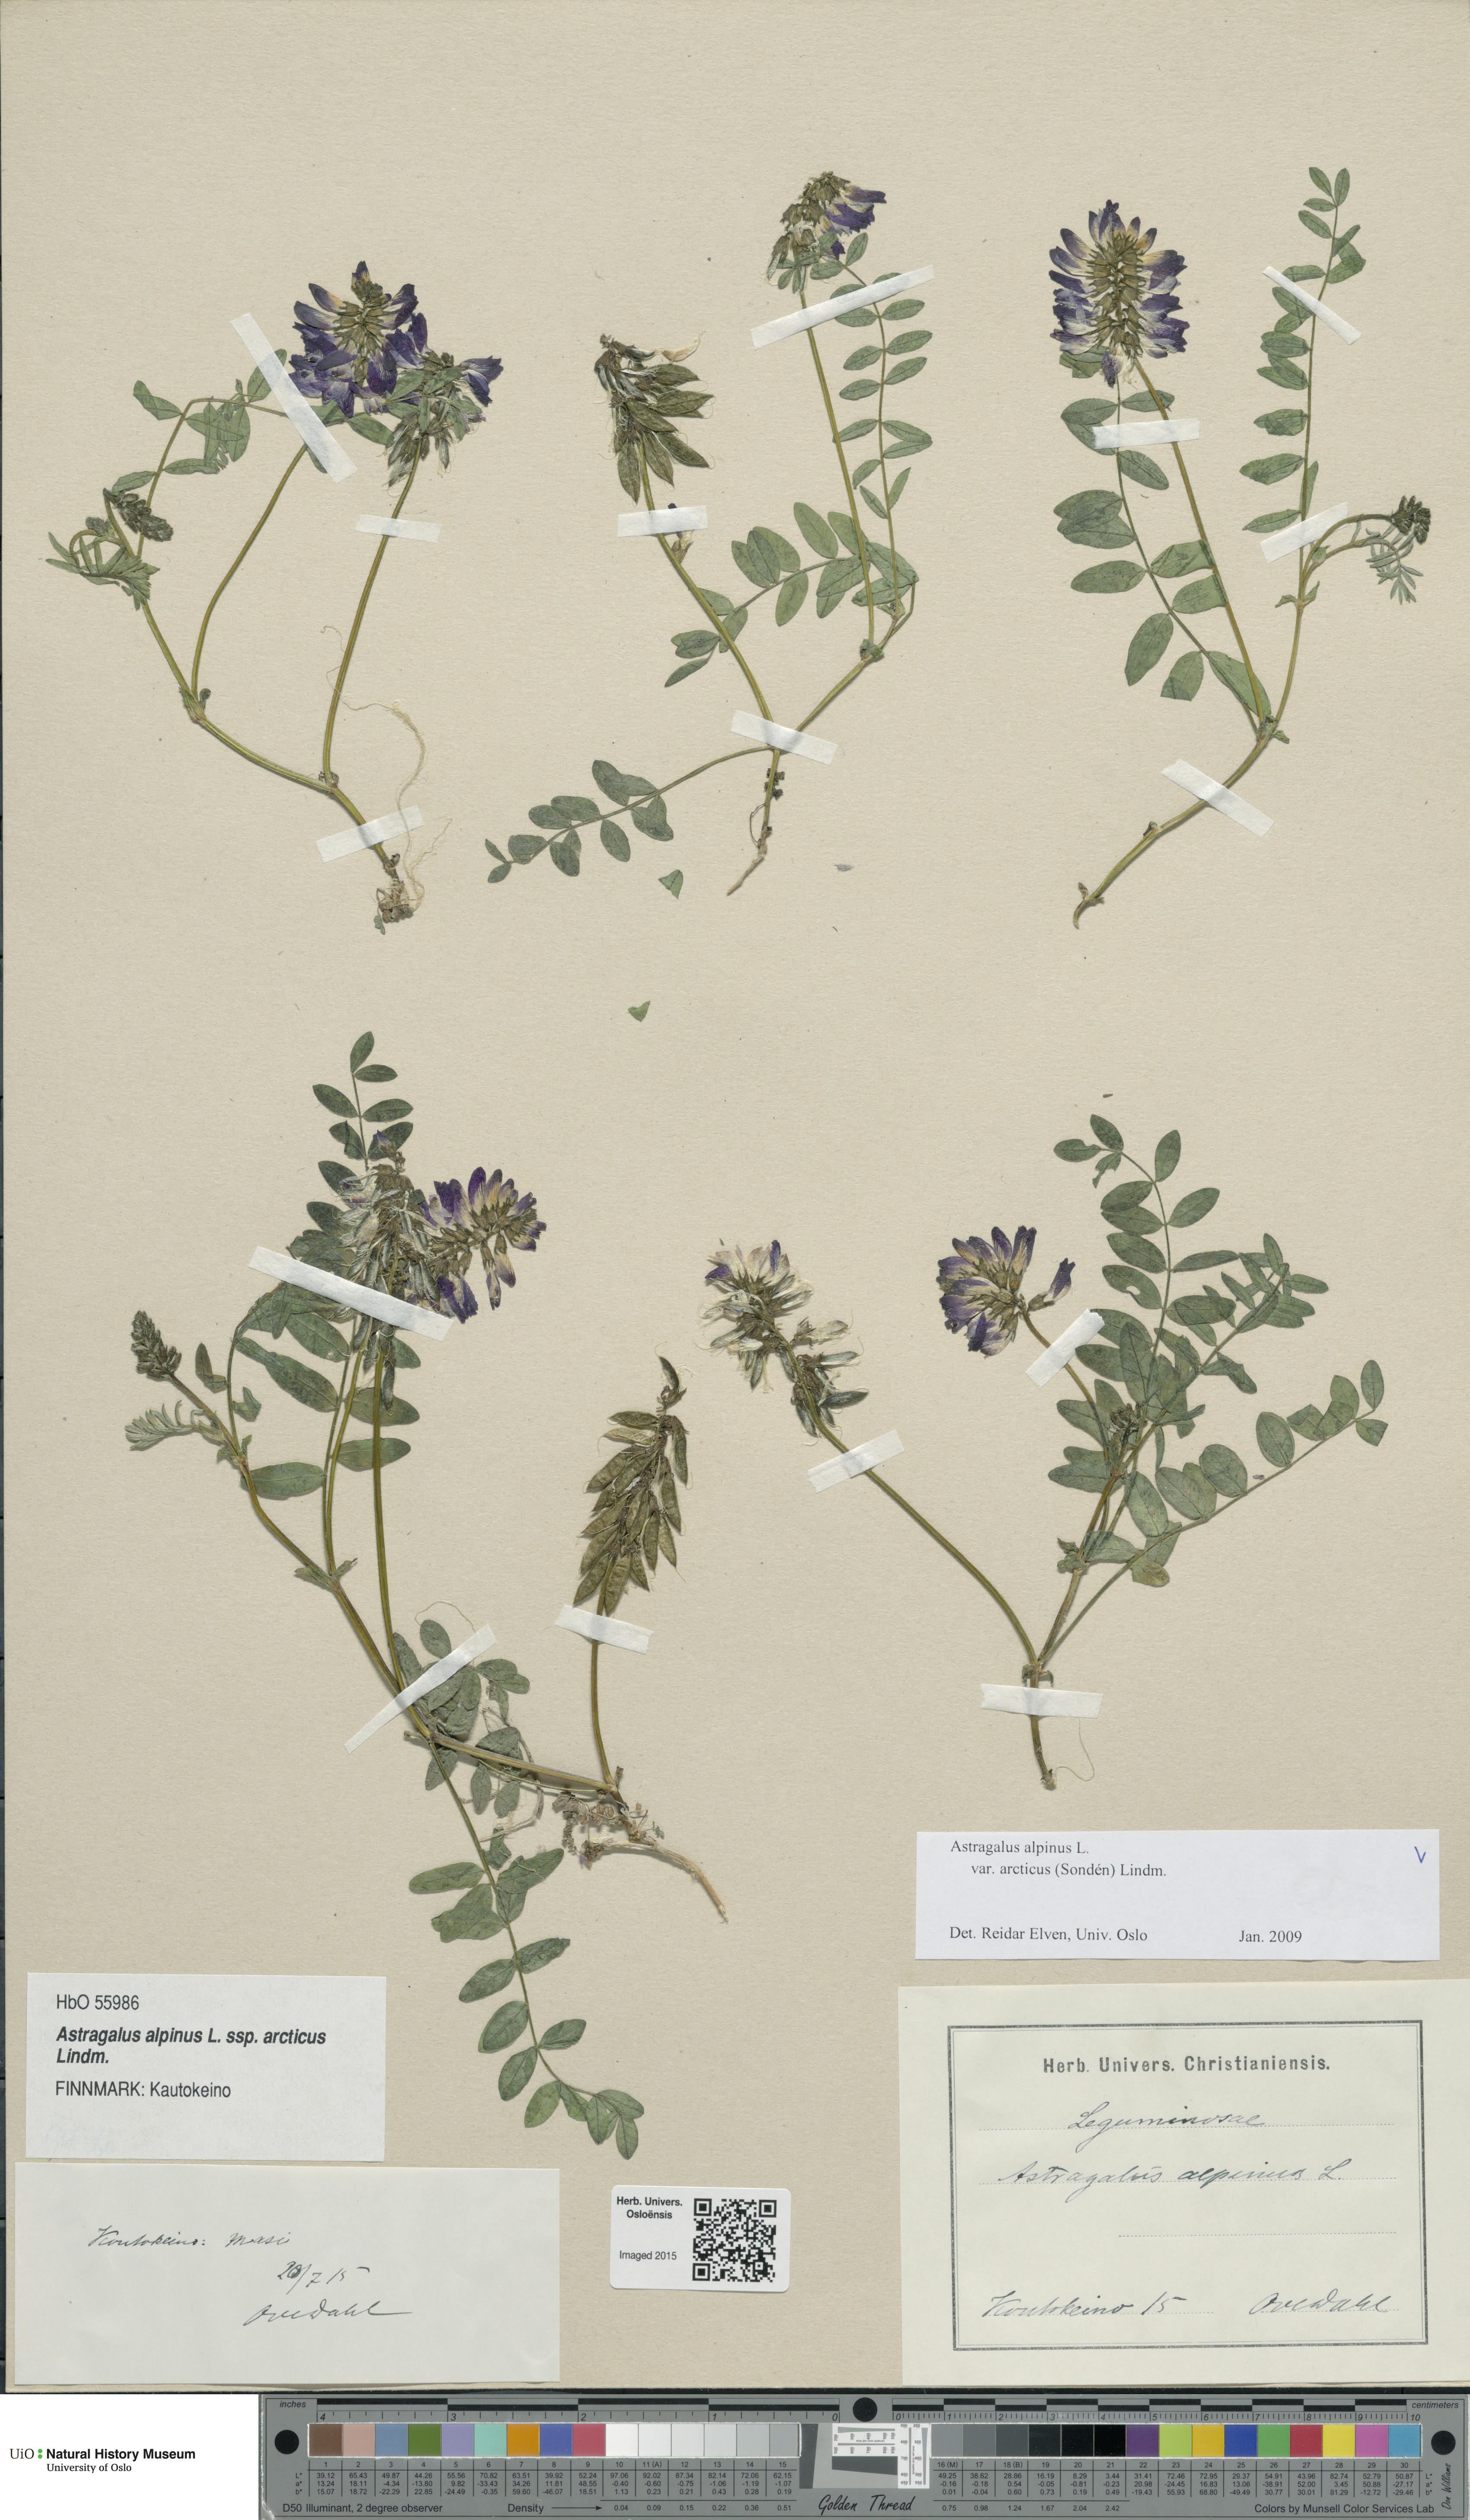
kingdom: Plantae
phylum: Tracheophyta
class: Magnoliopsida
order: Fabales
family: Fabaceae
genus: Astragalus
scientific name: Astragalus norvegicus
